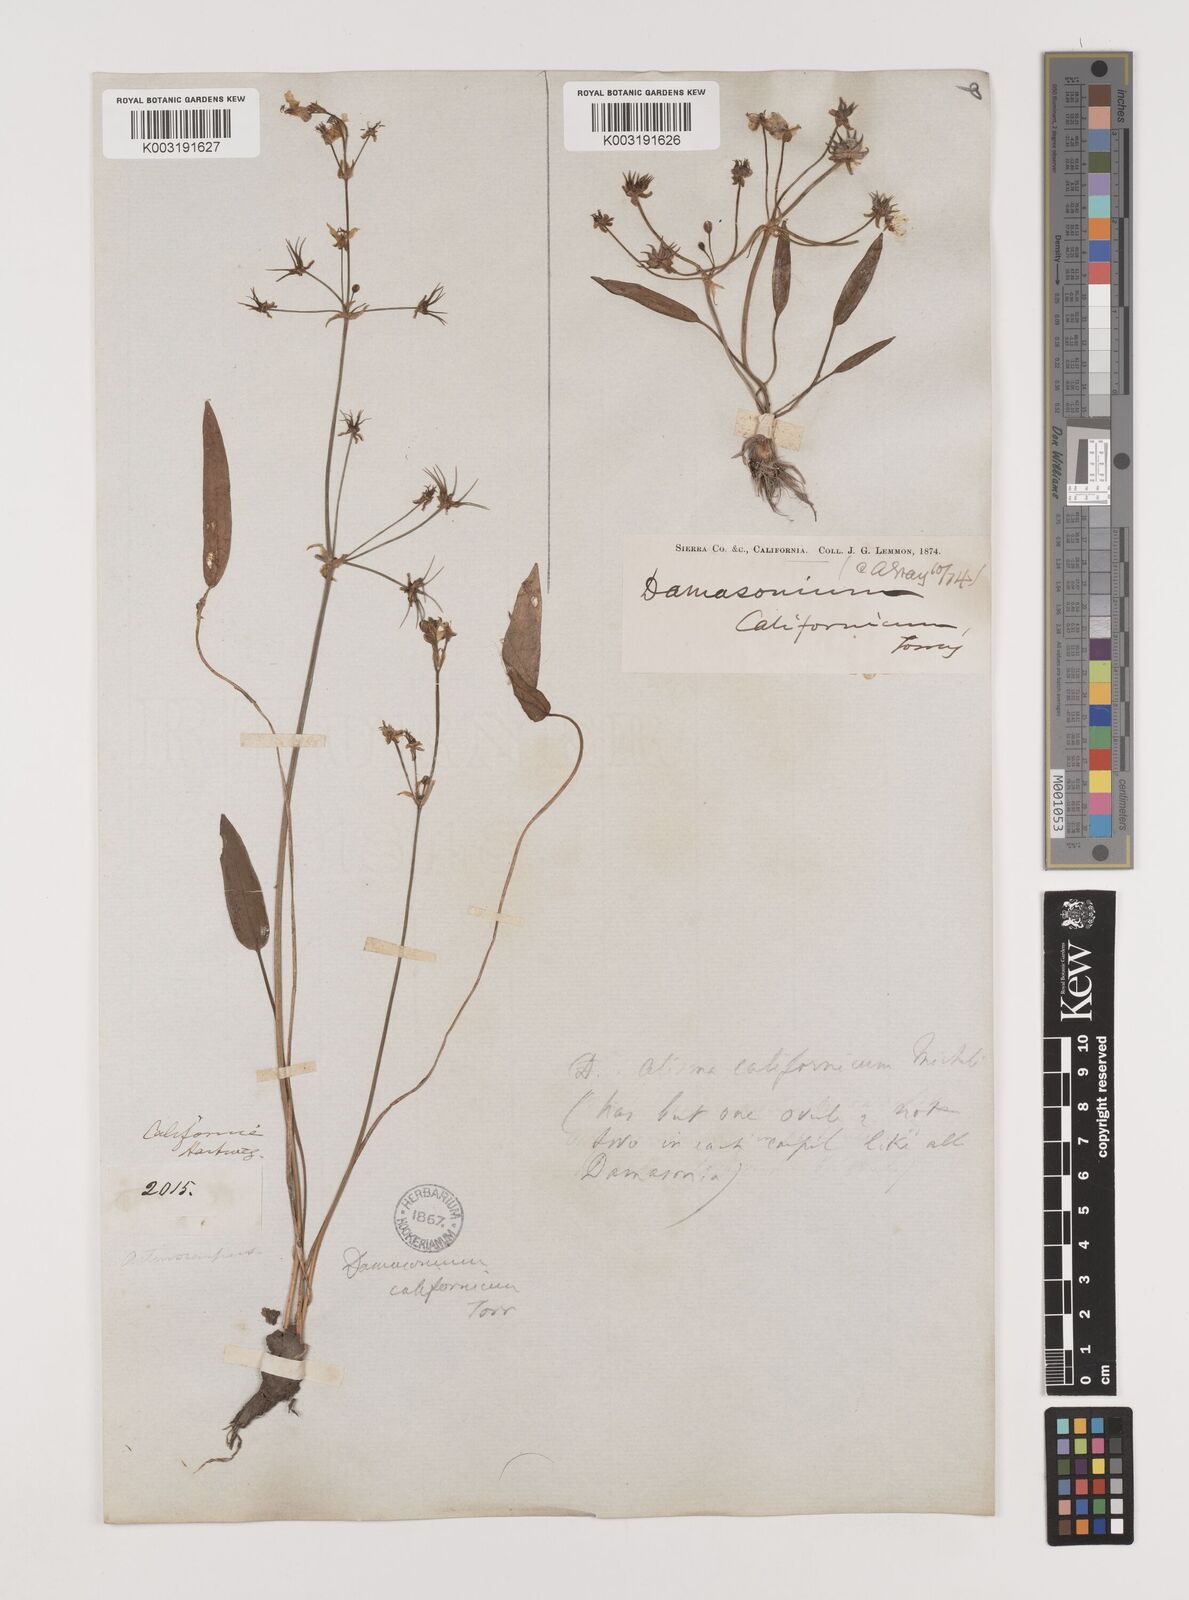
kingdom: Plantae
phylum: Tracheophyta
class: Liliopsida
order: Alismatales
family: Alismataceae
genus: Damasonium
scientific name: Damasonium
